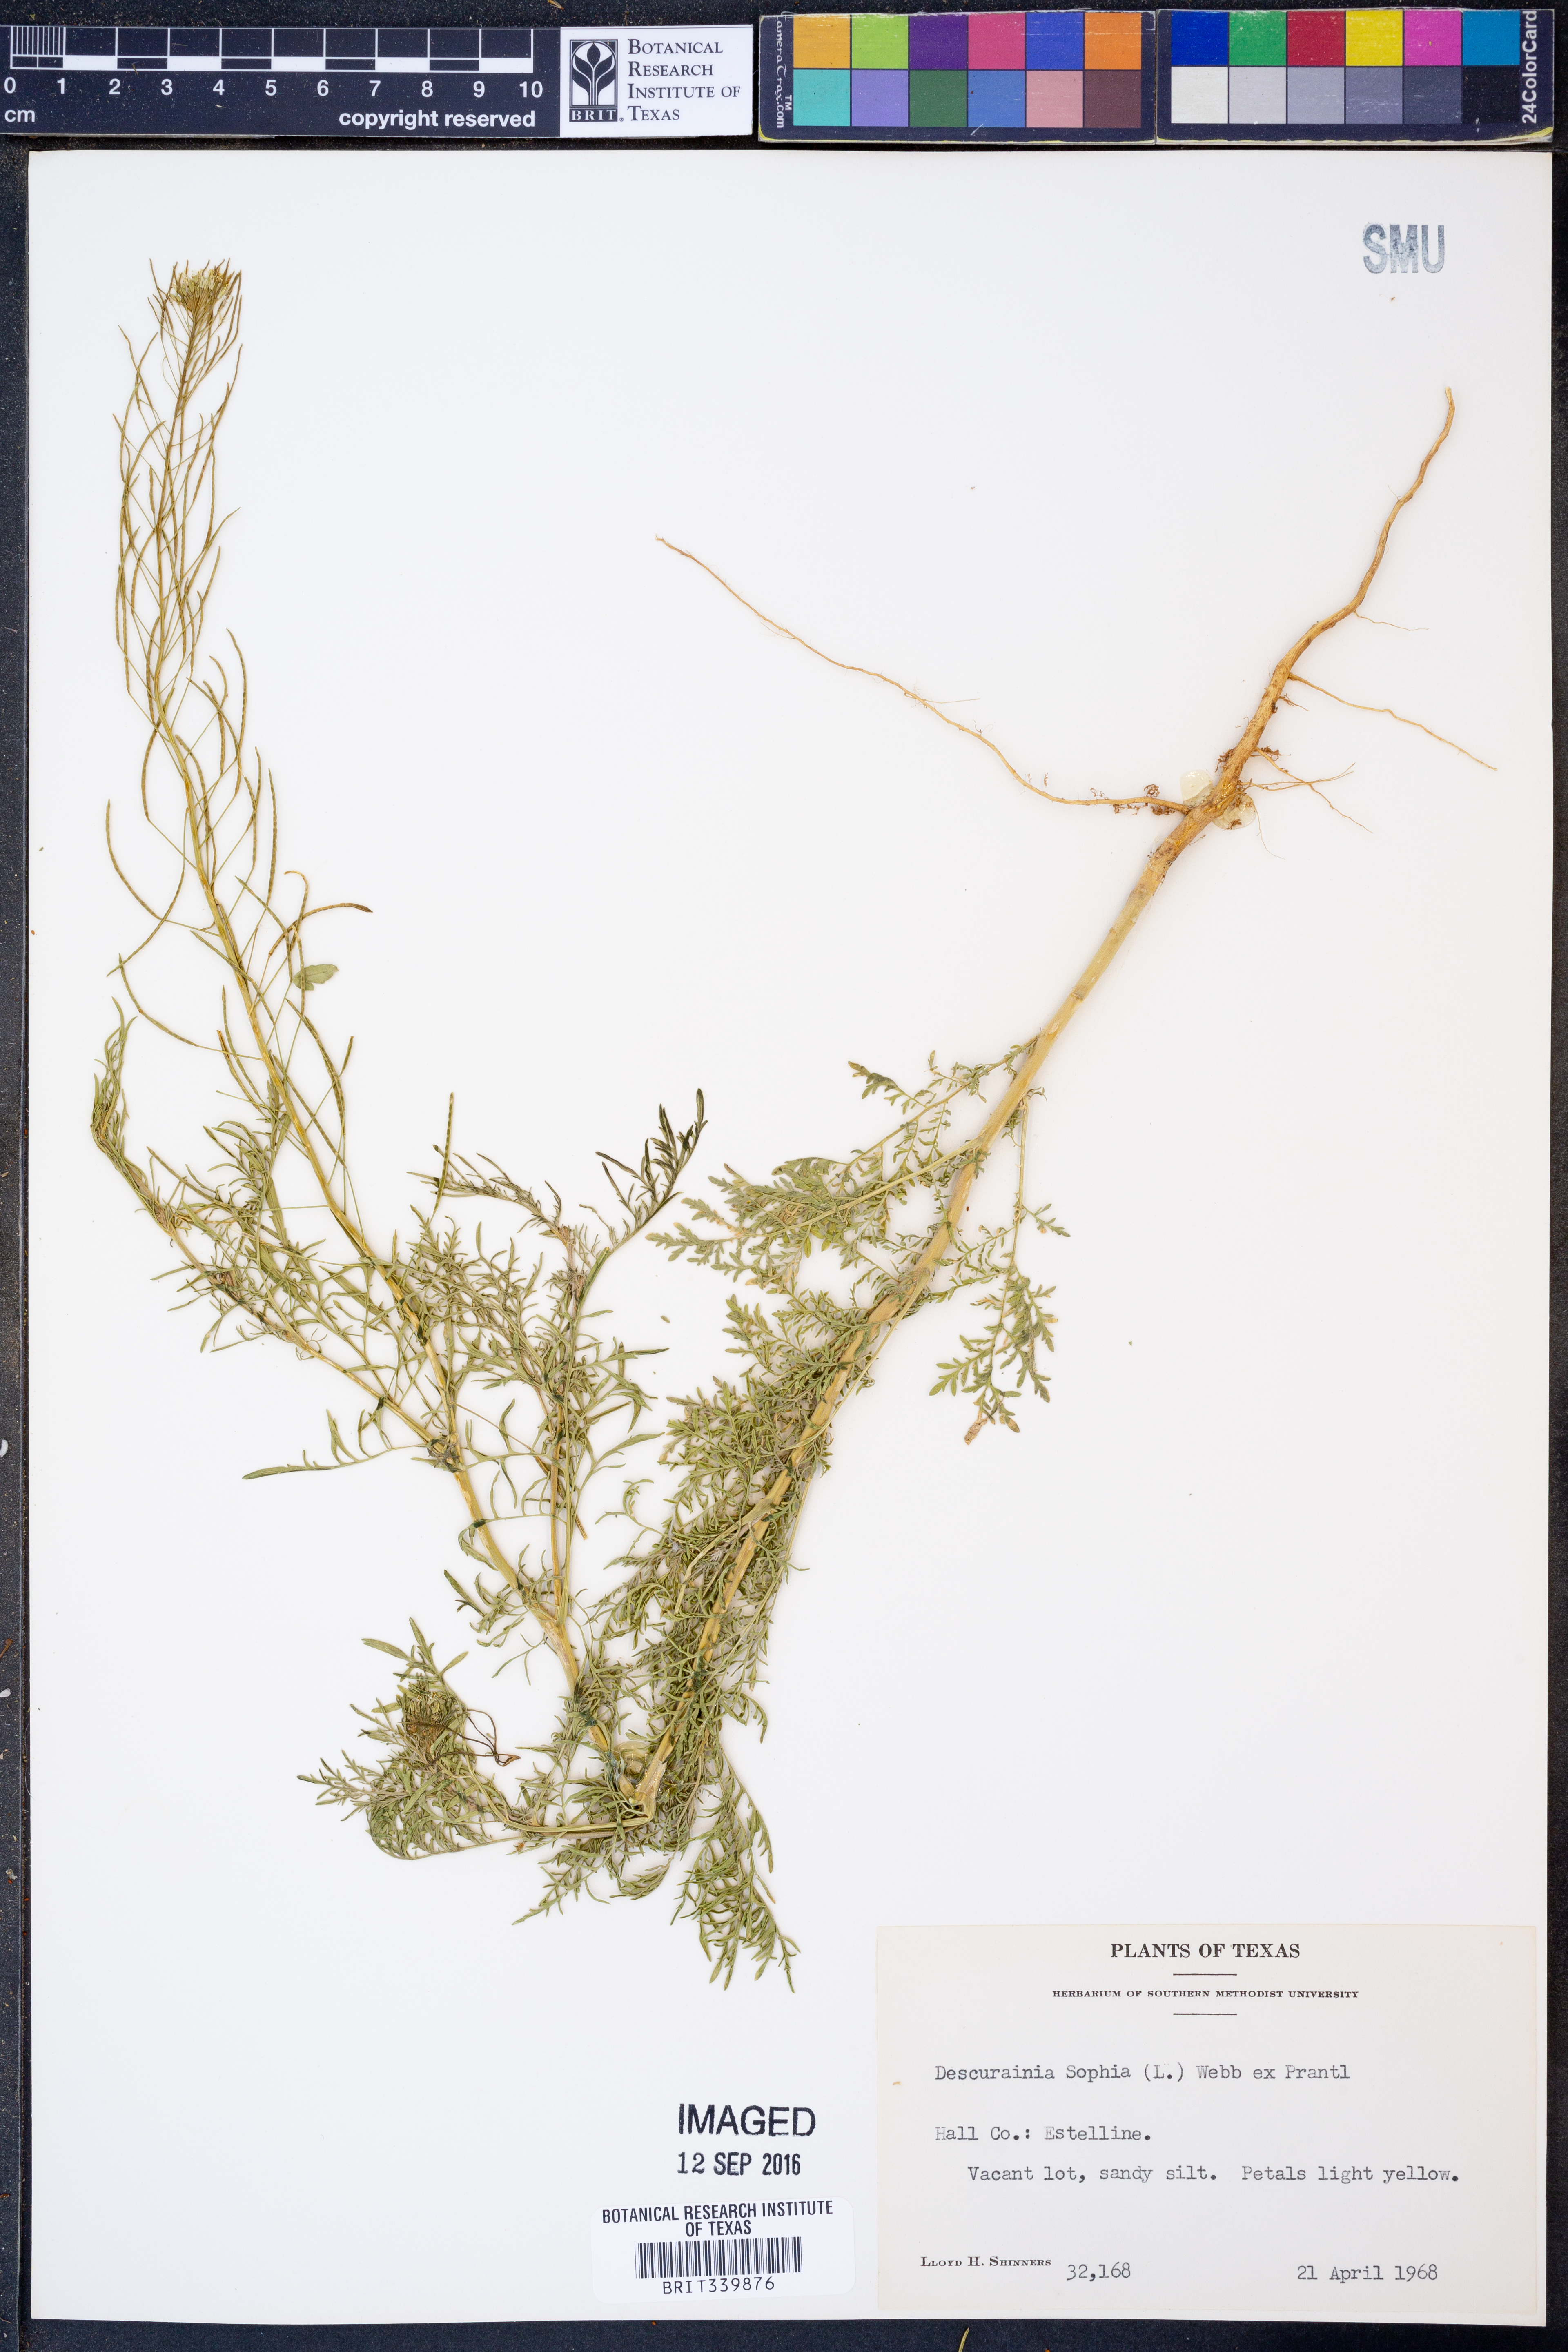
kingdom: Plantae
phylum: Tracheophyta
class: Magnoliopsida
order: Brassicales
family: Brassicaceae
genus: Descurainia
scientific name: Descurainia sophia
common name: Flixweed
